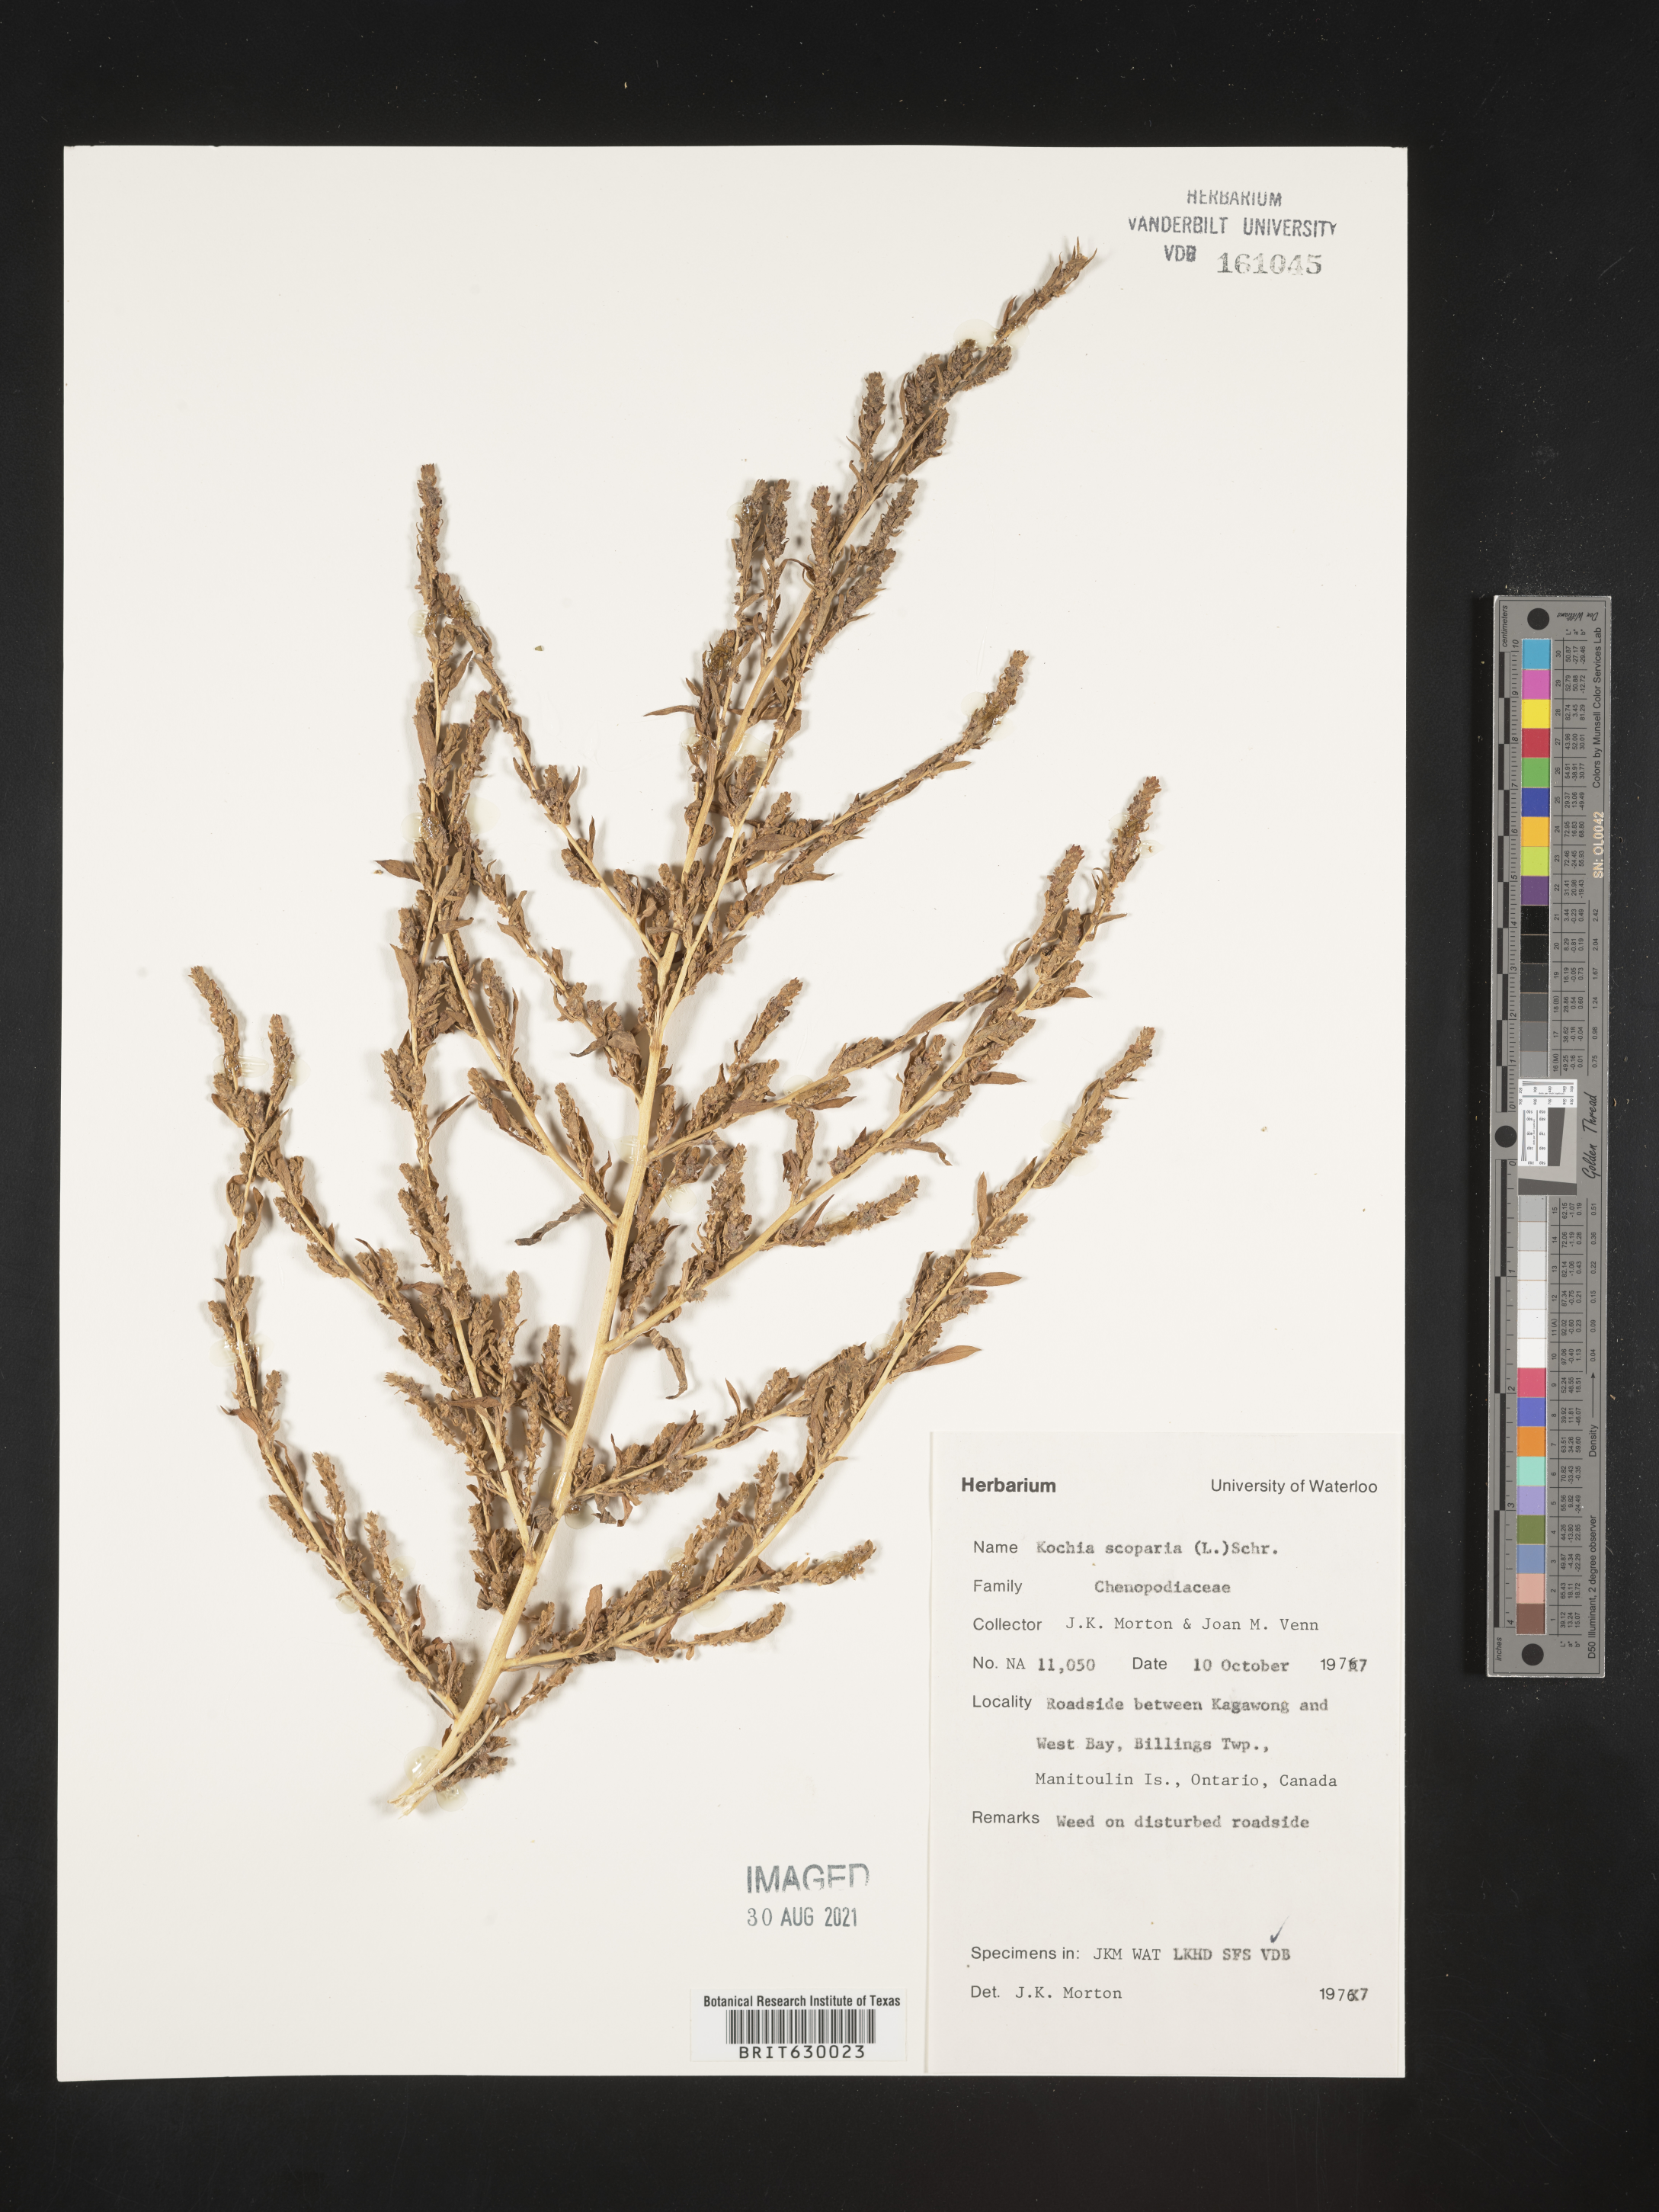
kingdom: Plantae
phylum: Tracheophyta
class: Magnoliopsida
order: Caryophyllales
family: Amaranthaceae
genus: Bassia
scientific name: Bassia scoparia
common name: Belvedere
